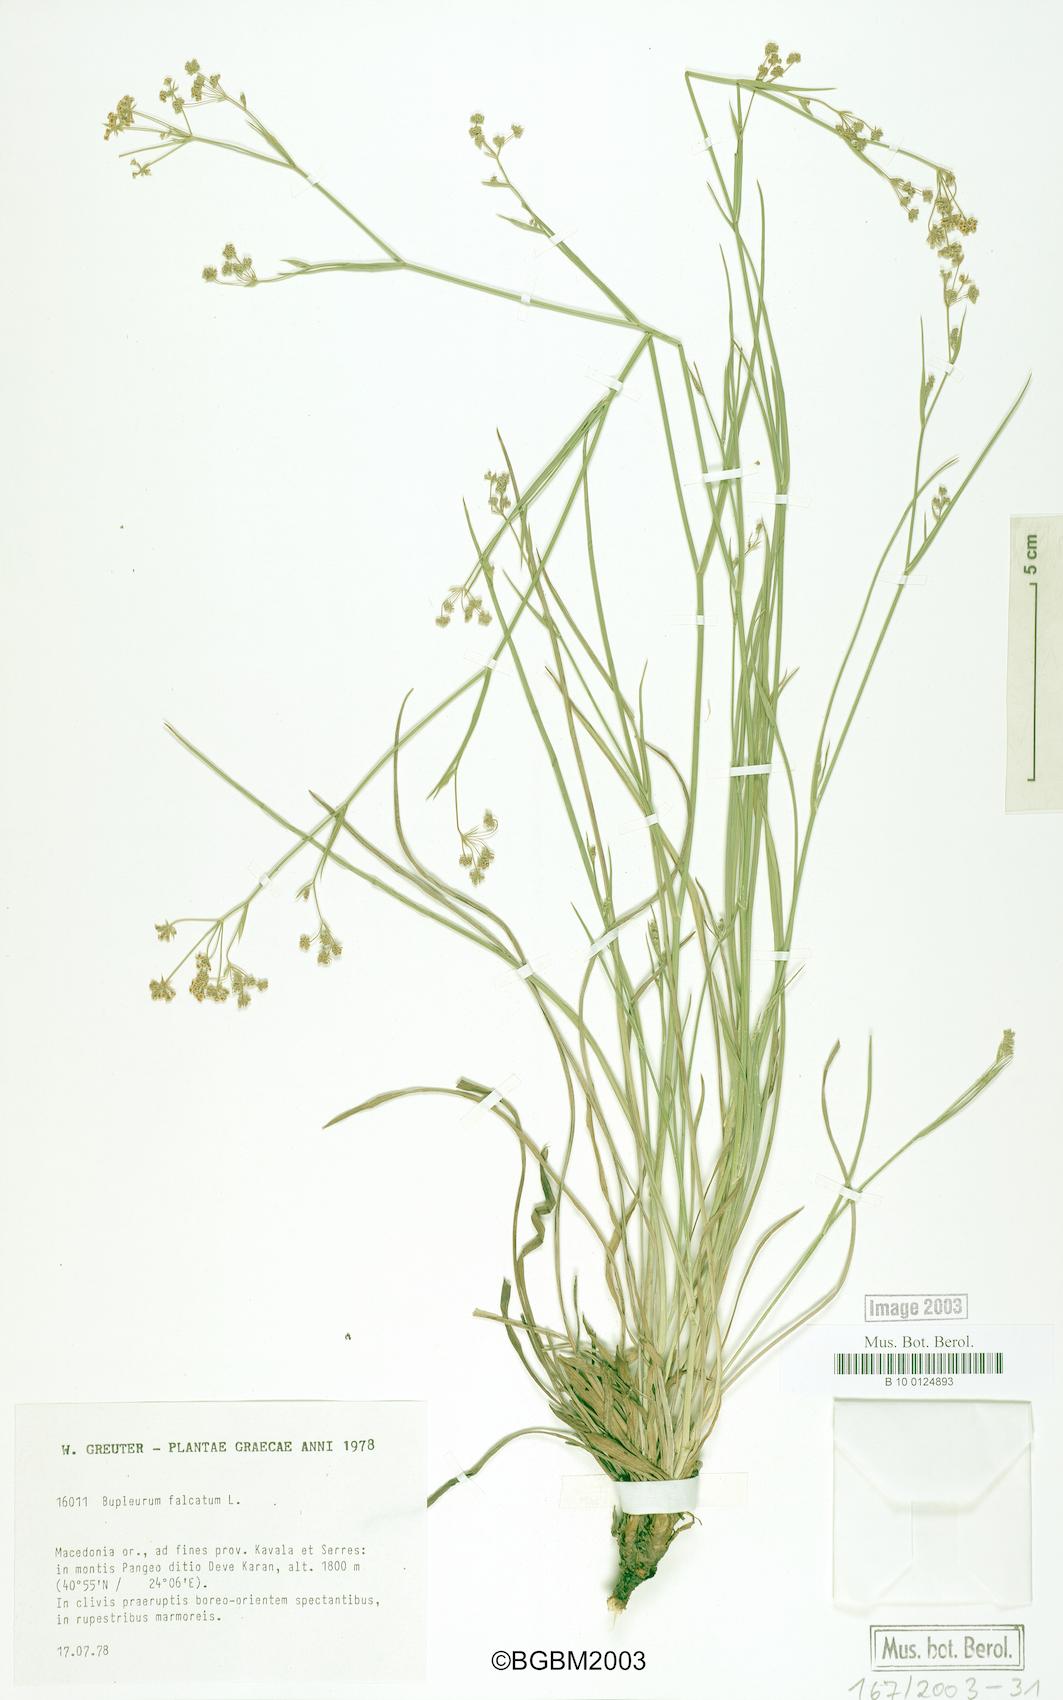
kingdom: Plantae
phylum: Tracheophyta
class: Magnoliopsida
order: Apiales
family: Apiaceae
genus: Bupleurum
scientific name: Bupleurum falcatum
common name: Sickle-leaved hare's-ear
